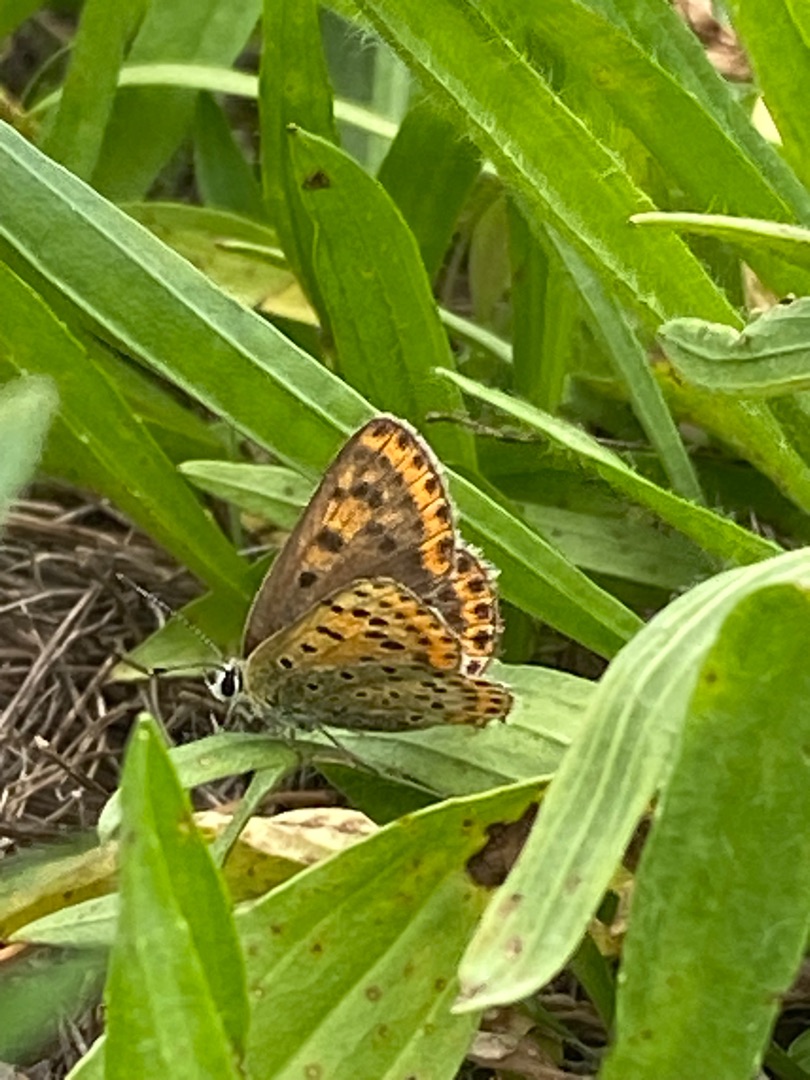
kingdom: Animalia
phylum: Arthropoda
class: Insecta
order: Lepidoptera
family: Lycaenidae
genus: Loweia
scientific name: Loweia tityrus
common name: Sort ildfugl
